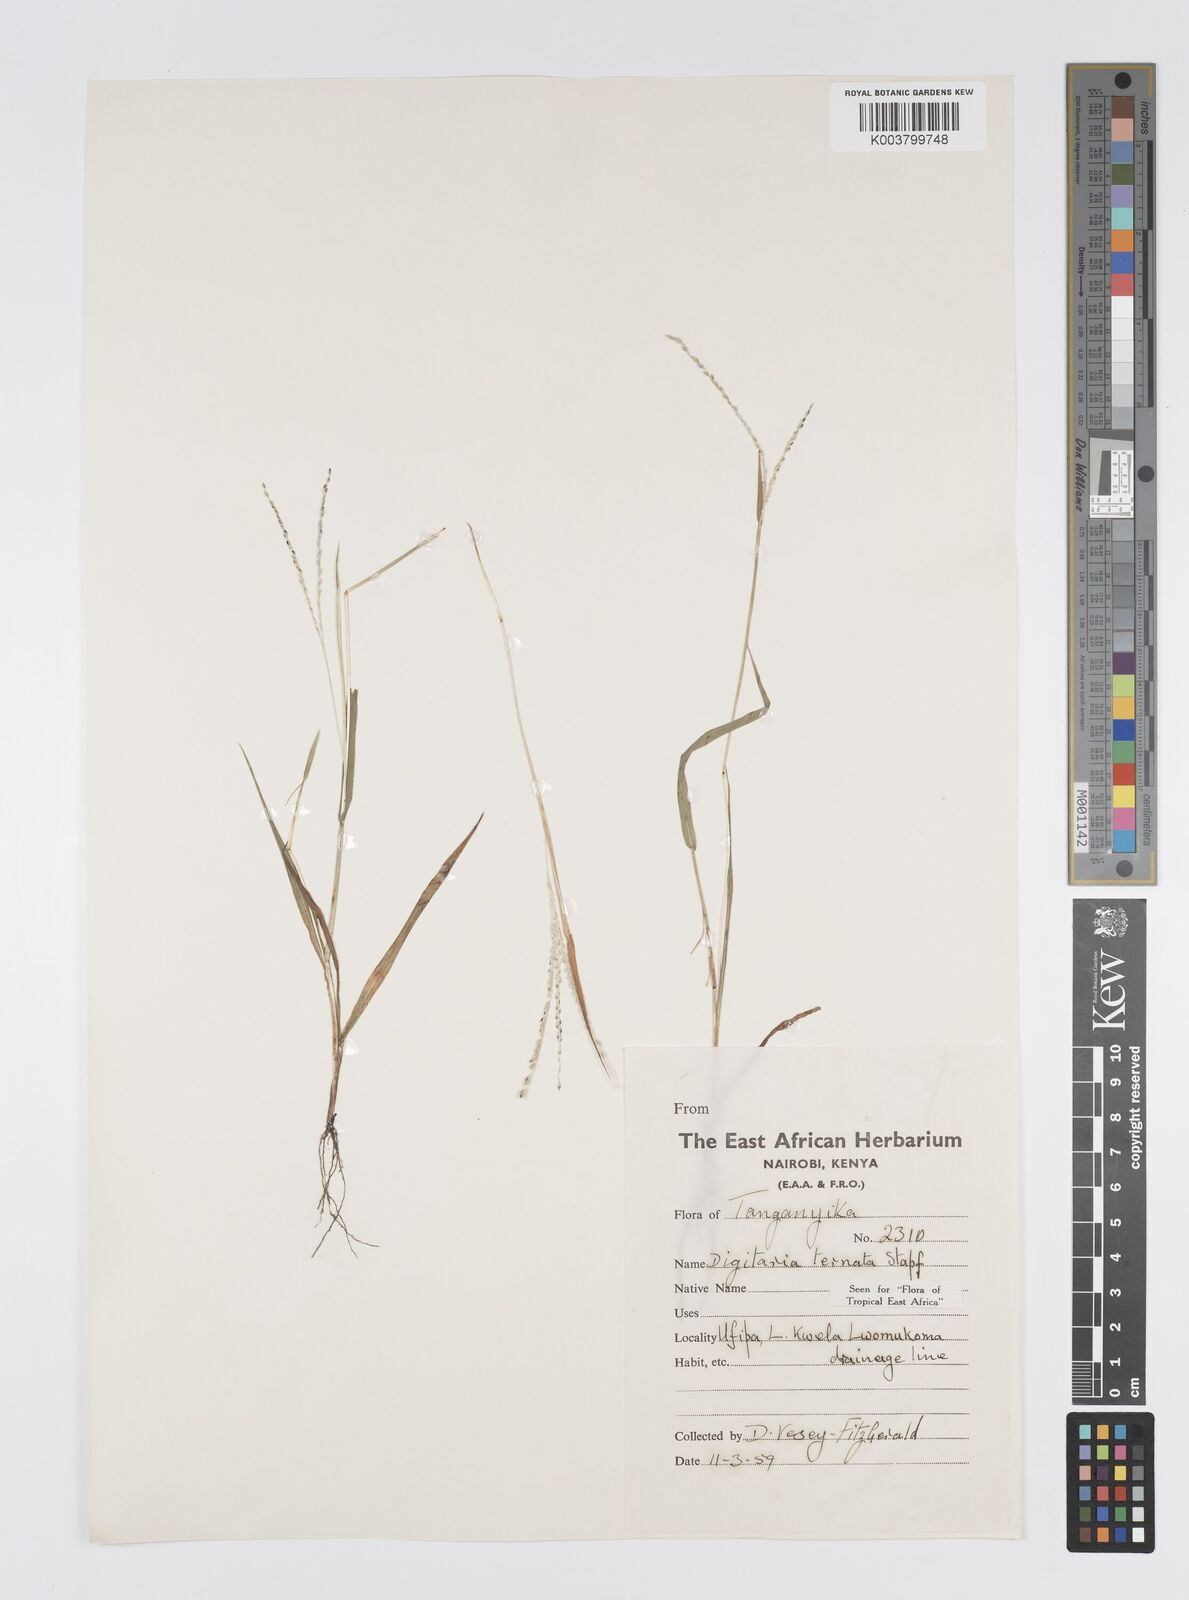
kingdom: Plantae
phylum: Tracheophyta
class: Liliopsida
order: Poales
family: Poaceae
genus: Digitaria
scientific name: Digitaria ternata
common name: Blackseed crabgrass
